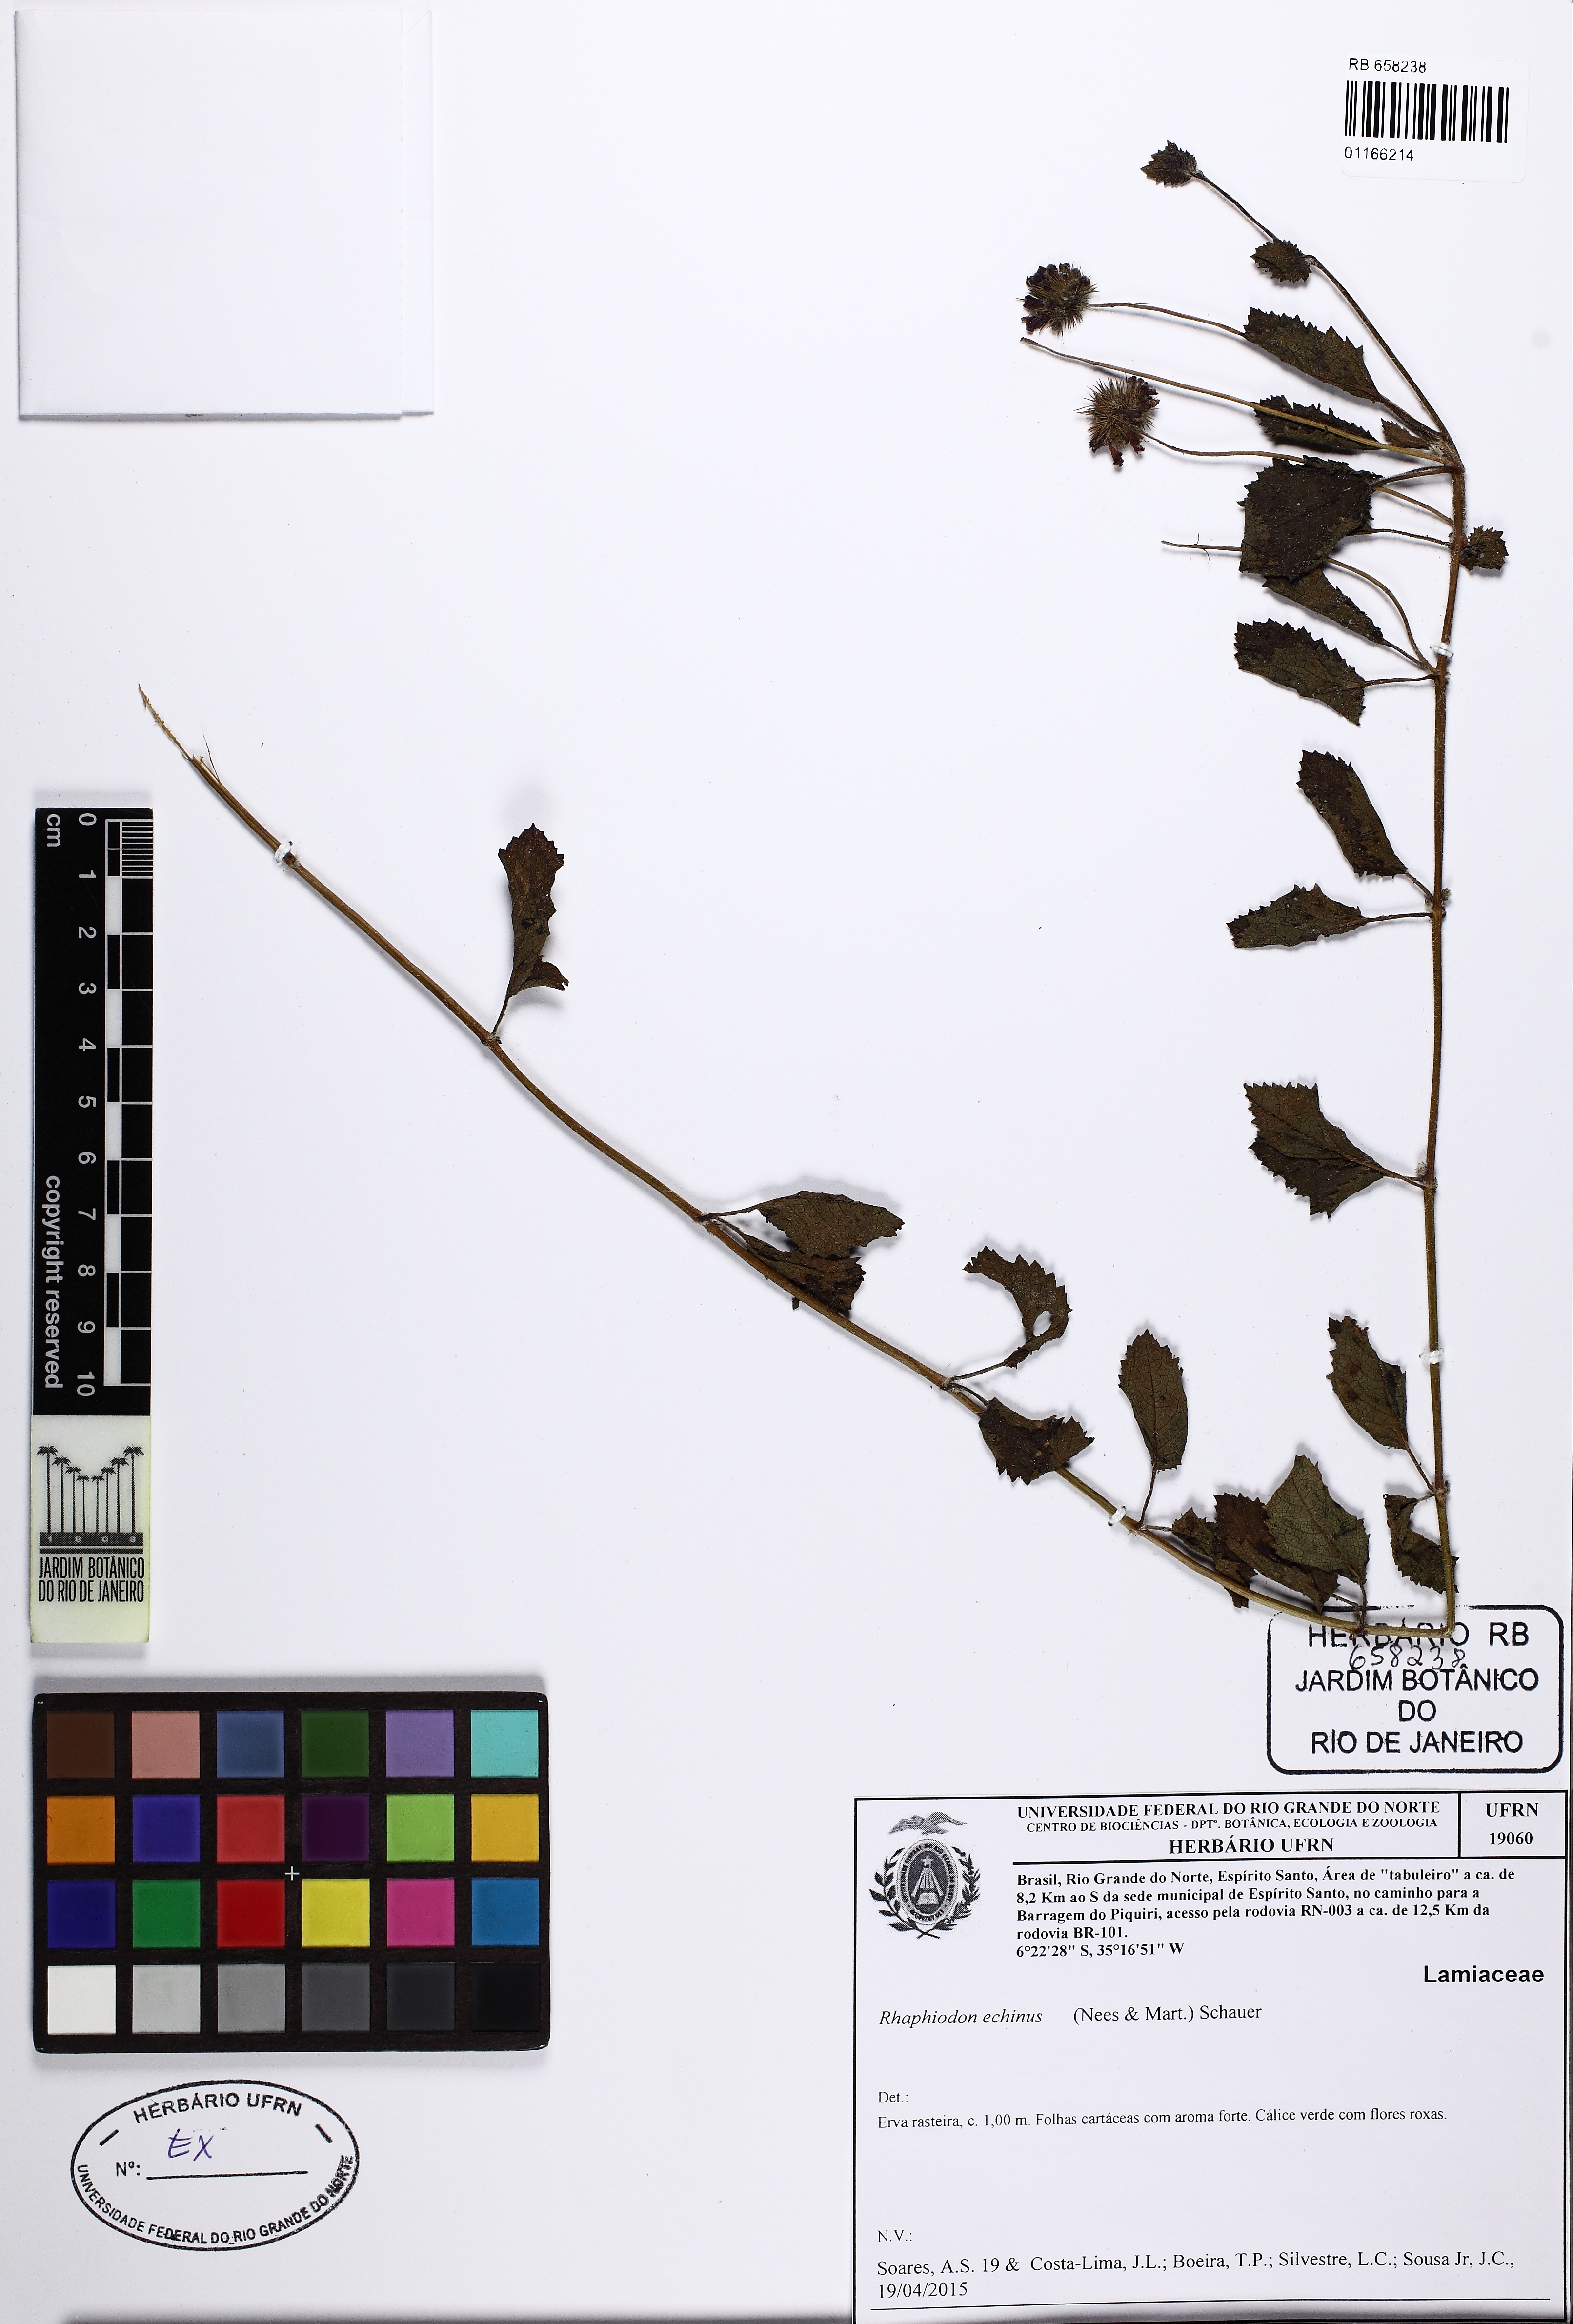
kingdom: Plantae
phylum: Tracheophyta
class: Magnoliopsida
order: Lamiales
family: Lamiaceae
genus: Rhaphiodon
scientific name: Rhaphiodon echinus
